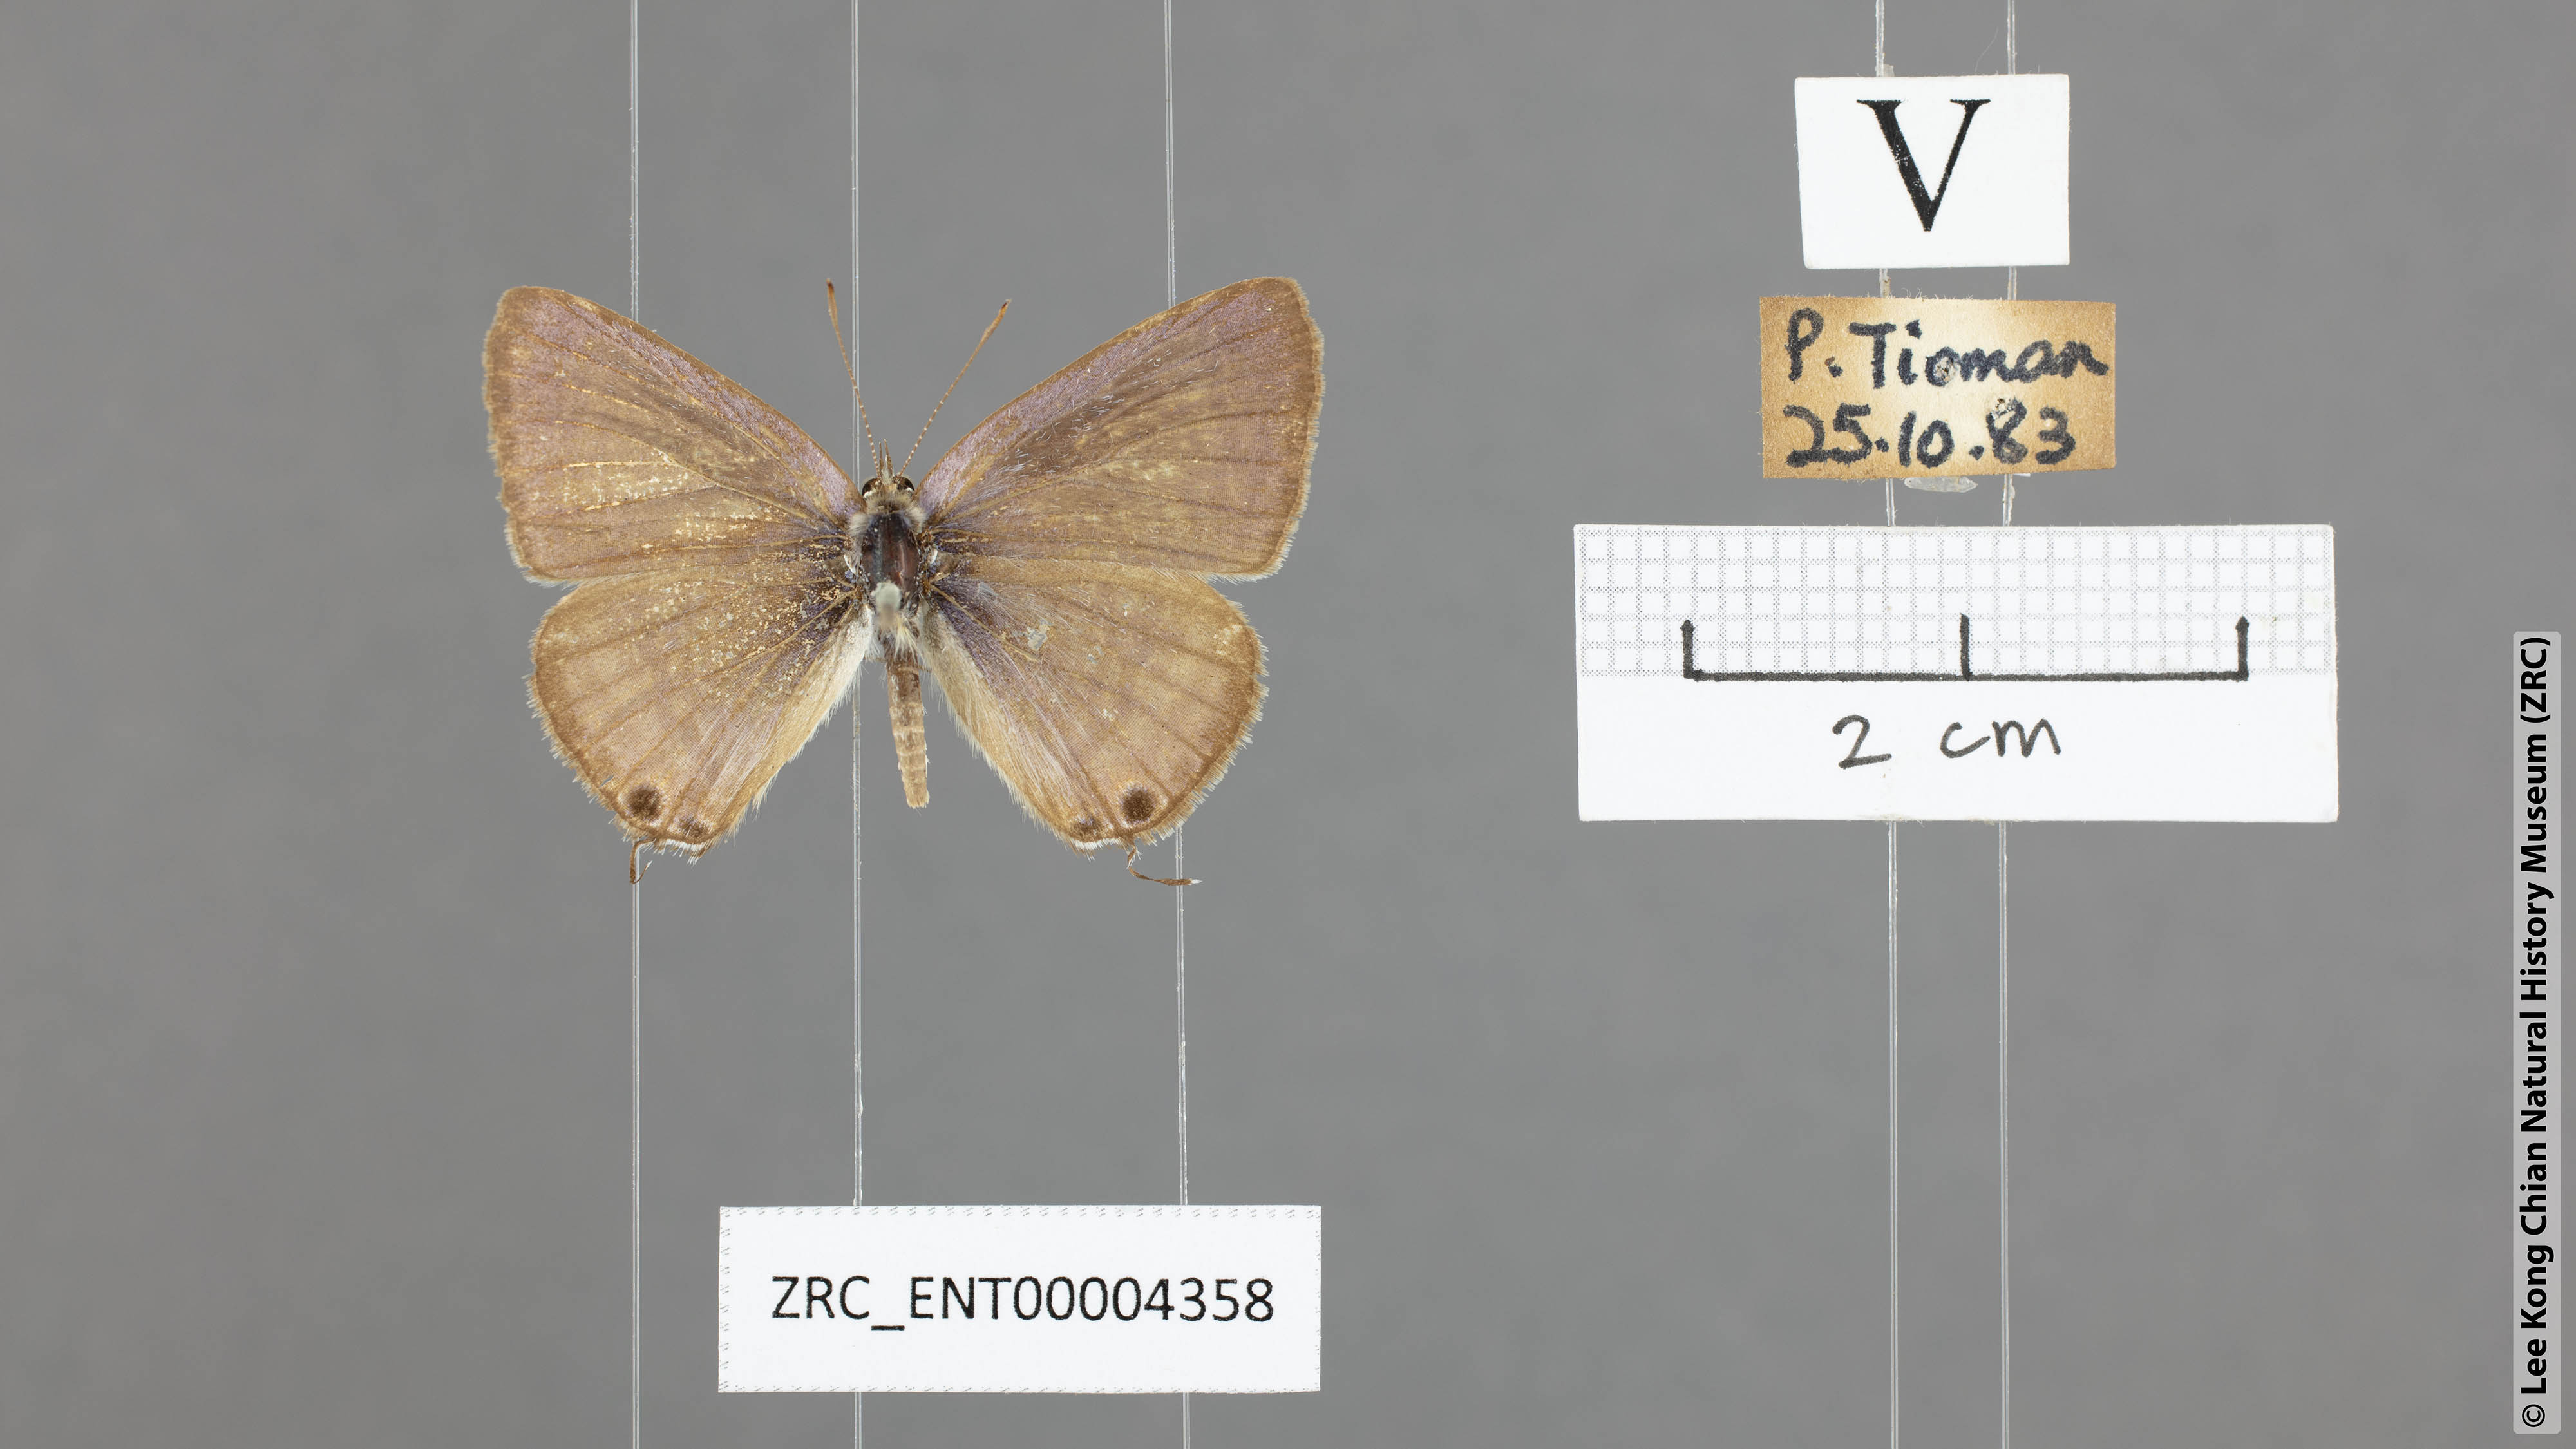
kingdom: Animalia
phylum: Arthropoda
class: Insecta
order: Lepidoptera
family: Lycaenidae
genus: Lampides
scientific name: Lampides boeticus
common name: Long-tailed blue
